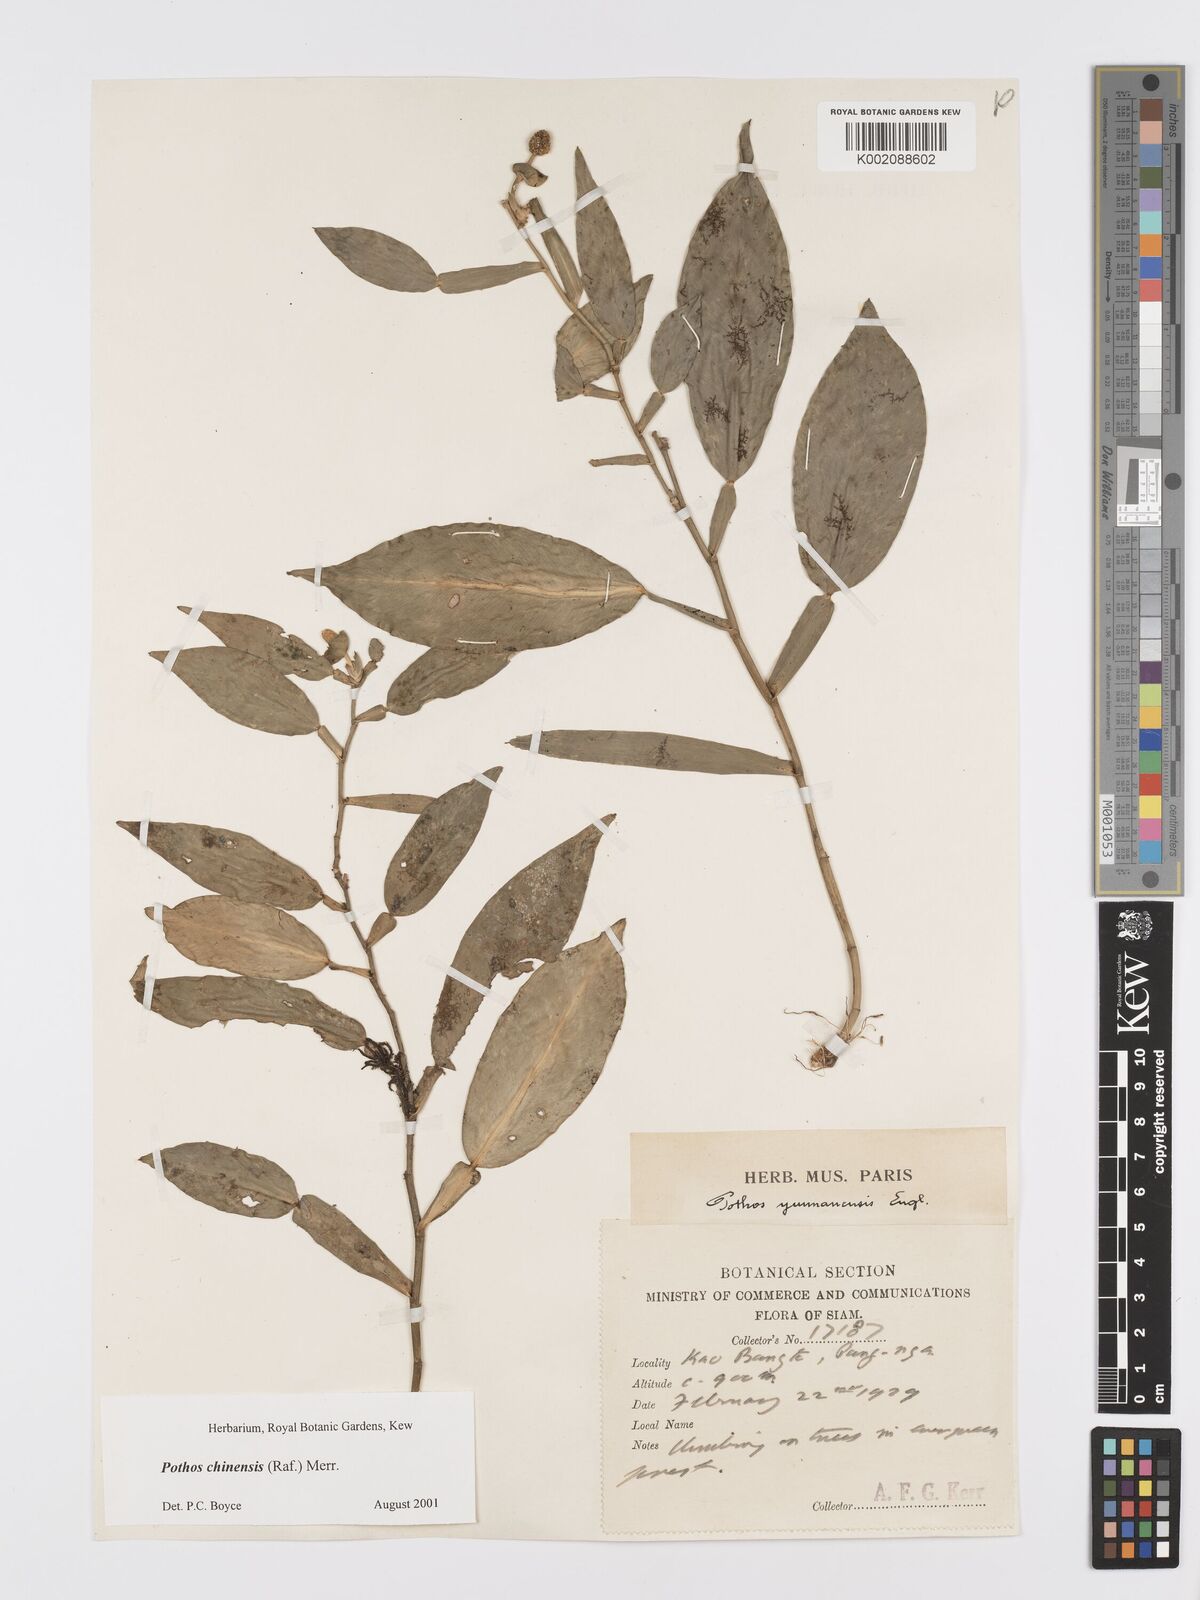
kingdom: Plantae
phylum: Tracheophyta
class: Liliopsida
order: Alismatales
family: Araceae
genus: Pothos
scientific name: Pothos chinensis
